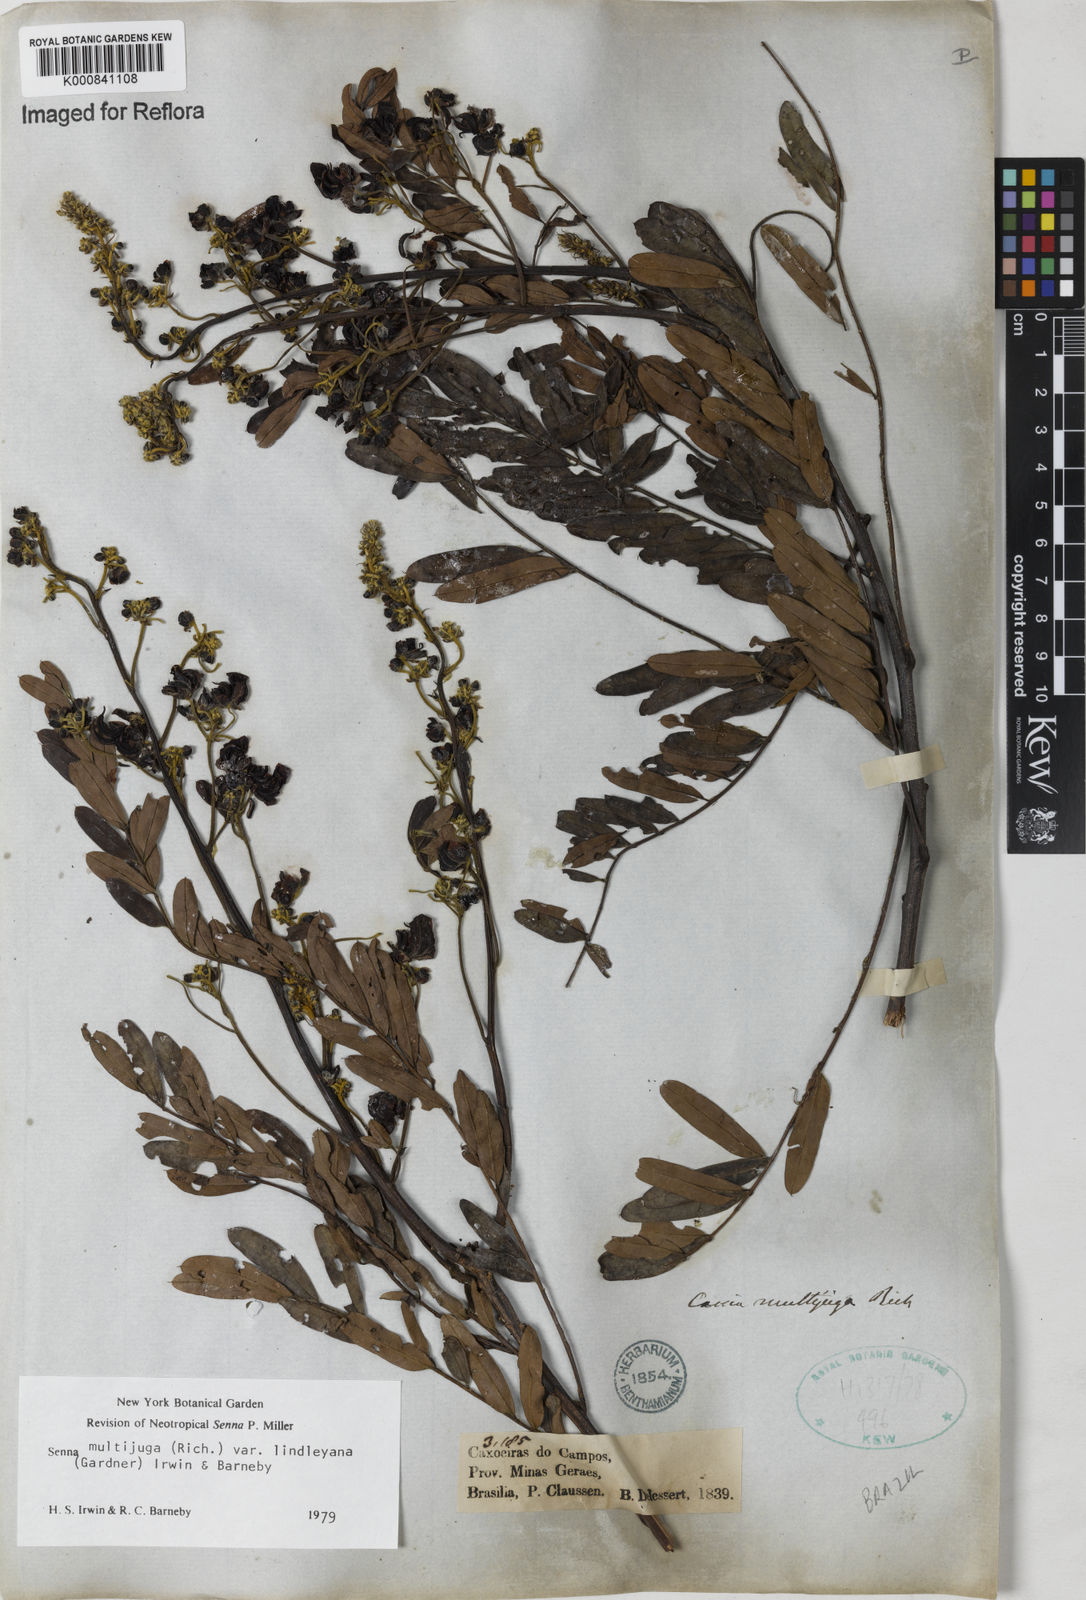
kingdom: Plantae
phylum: Tracheophyta
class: Magnoliopsida
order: Fabales
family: Fabaceae
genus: Senna
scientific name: Senna multijuga
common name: False sicklepod
